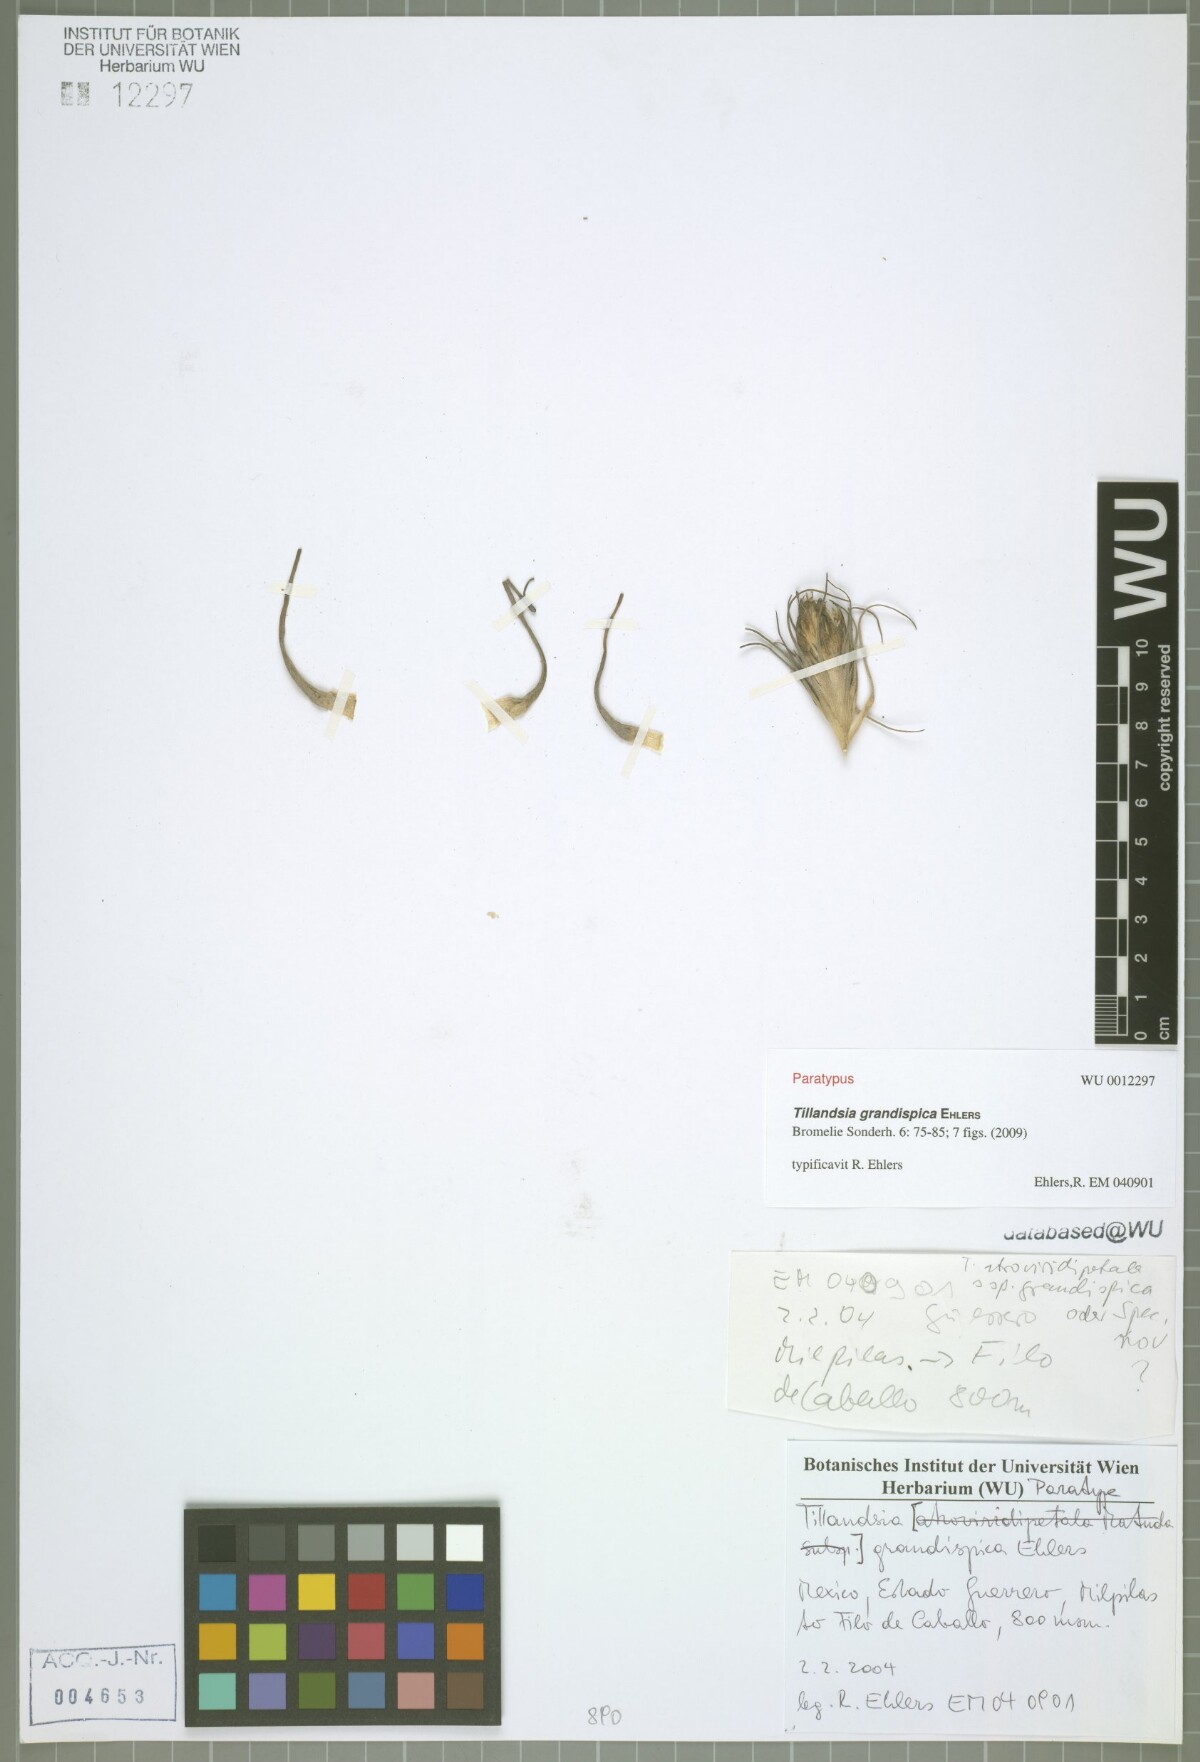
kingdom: Plantae
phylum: Tracheophyta
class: Liliopsida
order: Poales
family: Bromeliaceae
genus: Tillandsia
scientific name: Tillandsia grandispica
